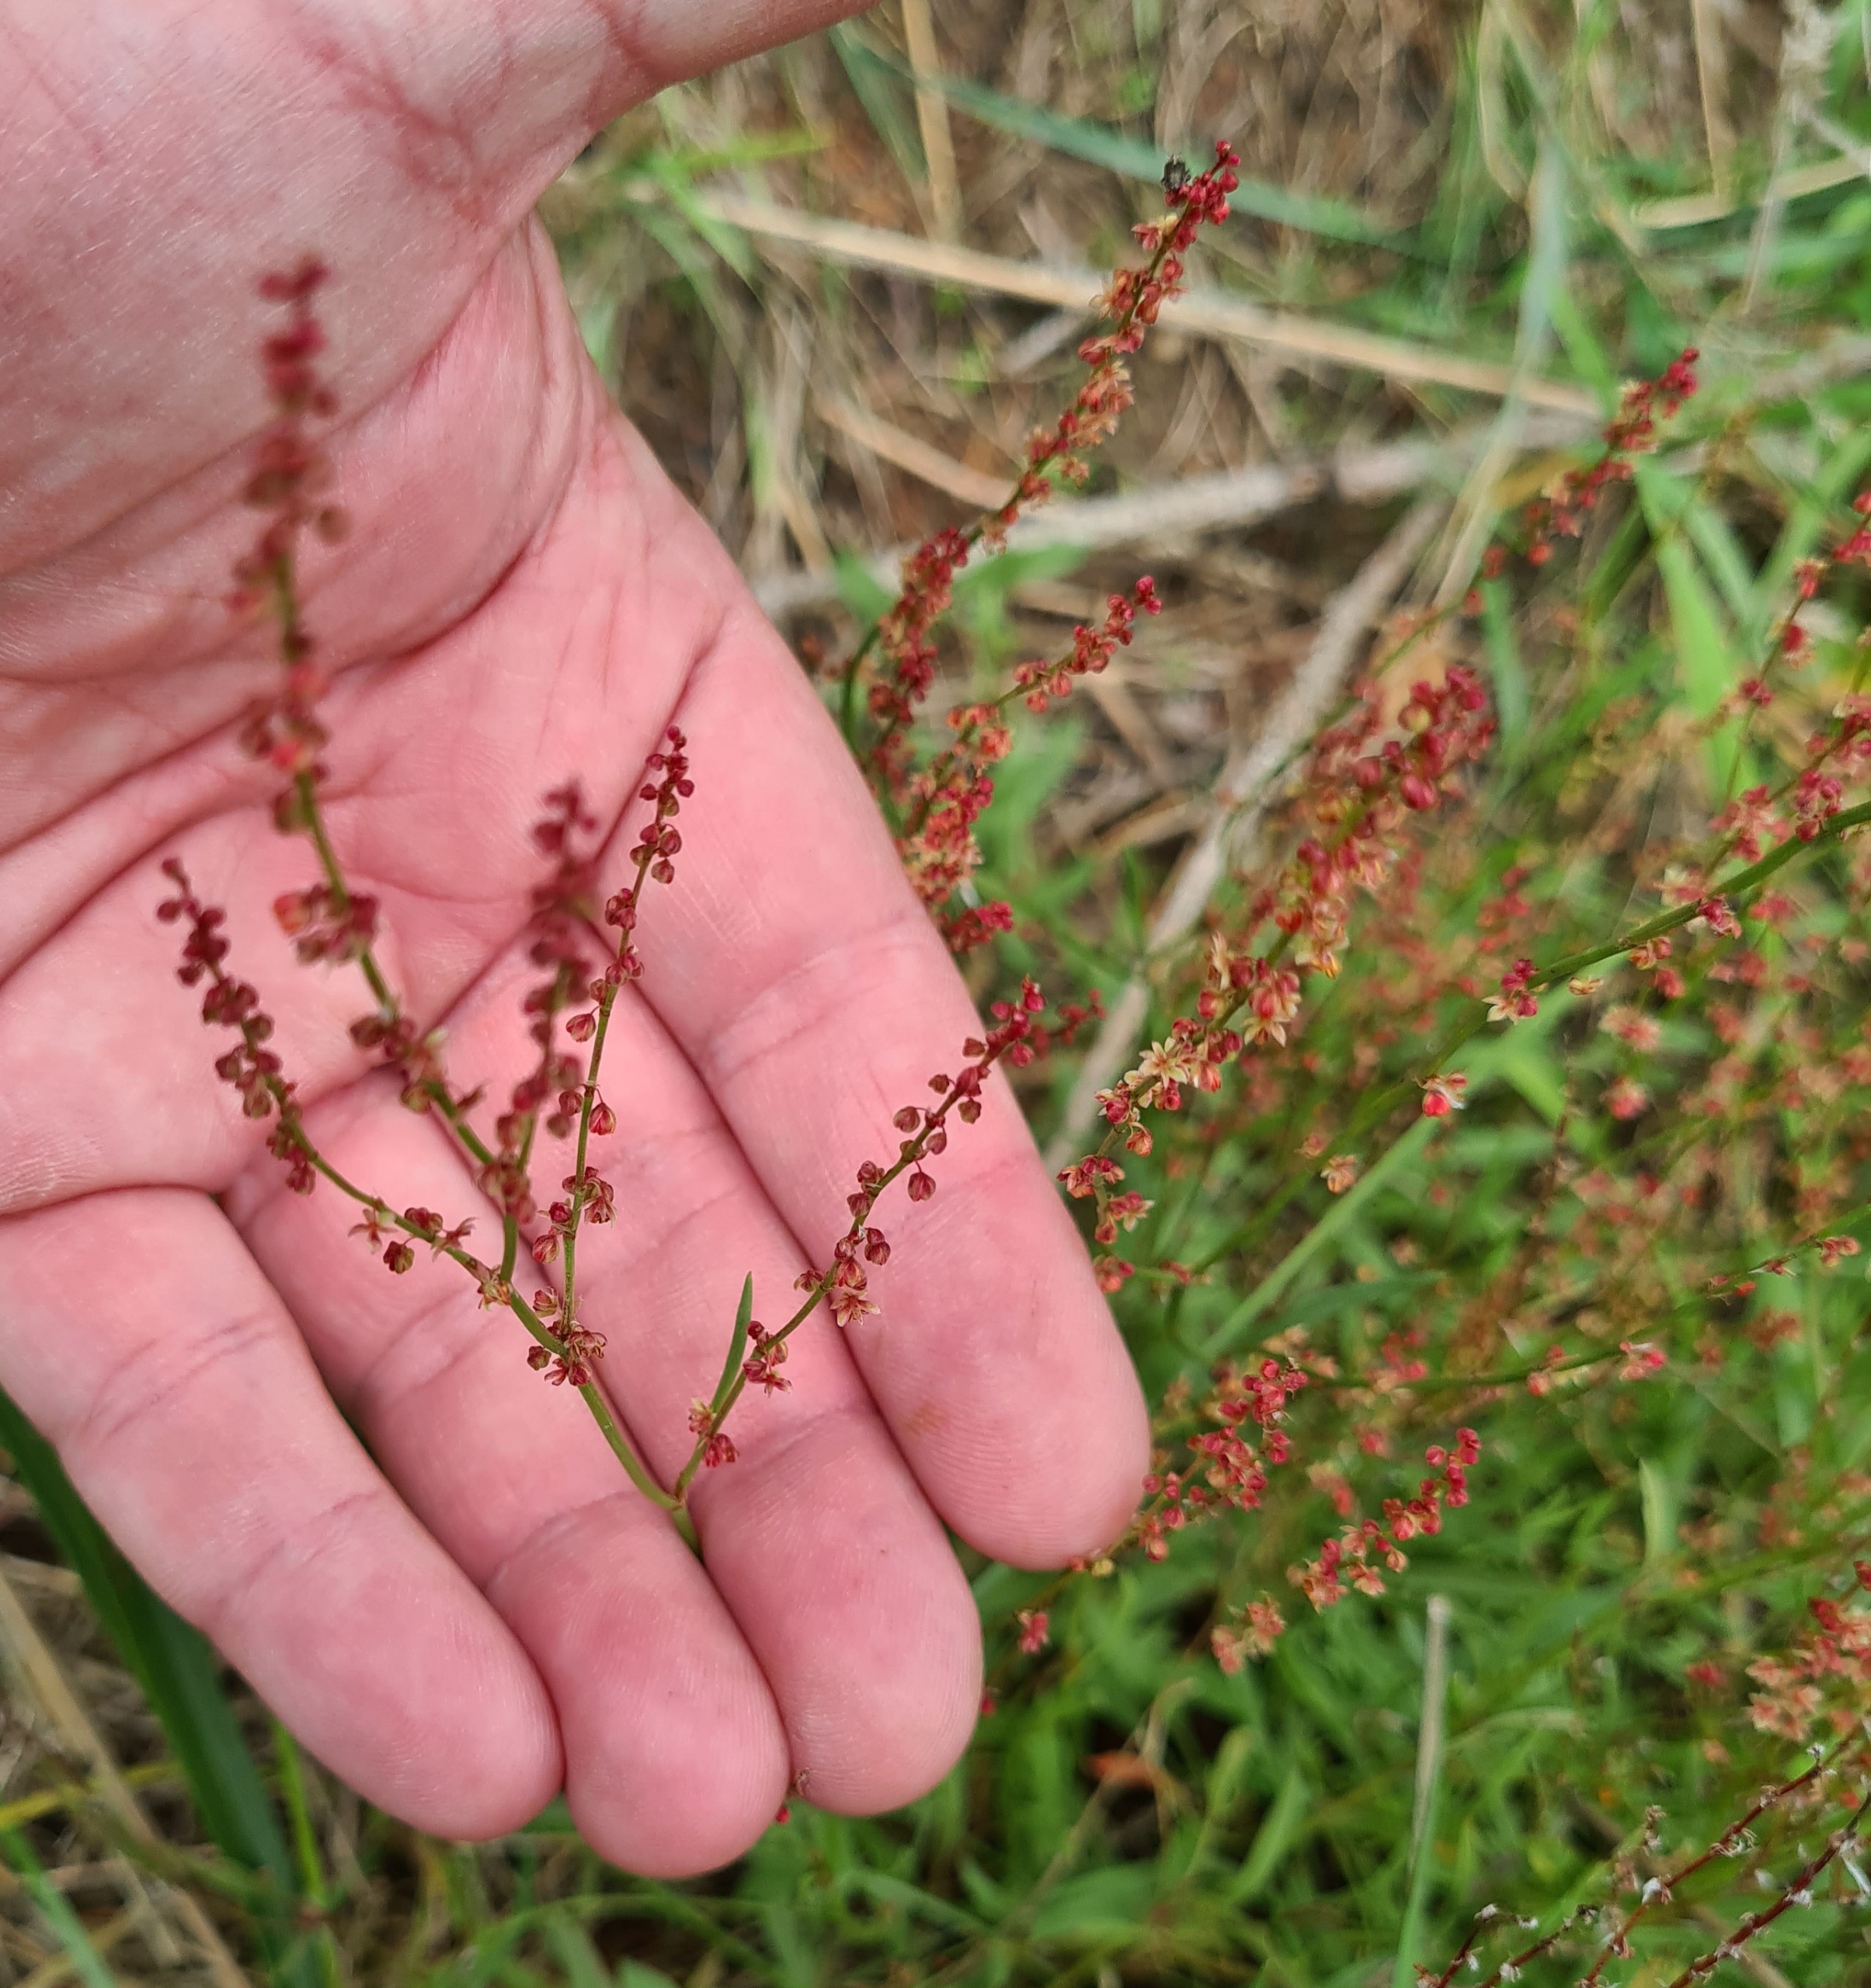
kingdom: Plantae
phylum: Tracheophyta
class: Magnoliopsida
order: Caryophyllales
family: Polygonaceae
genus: Rumex
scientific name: Rumex acetosella
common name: Rødknæ
